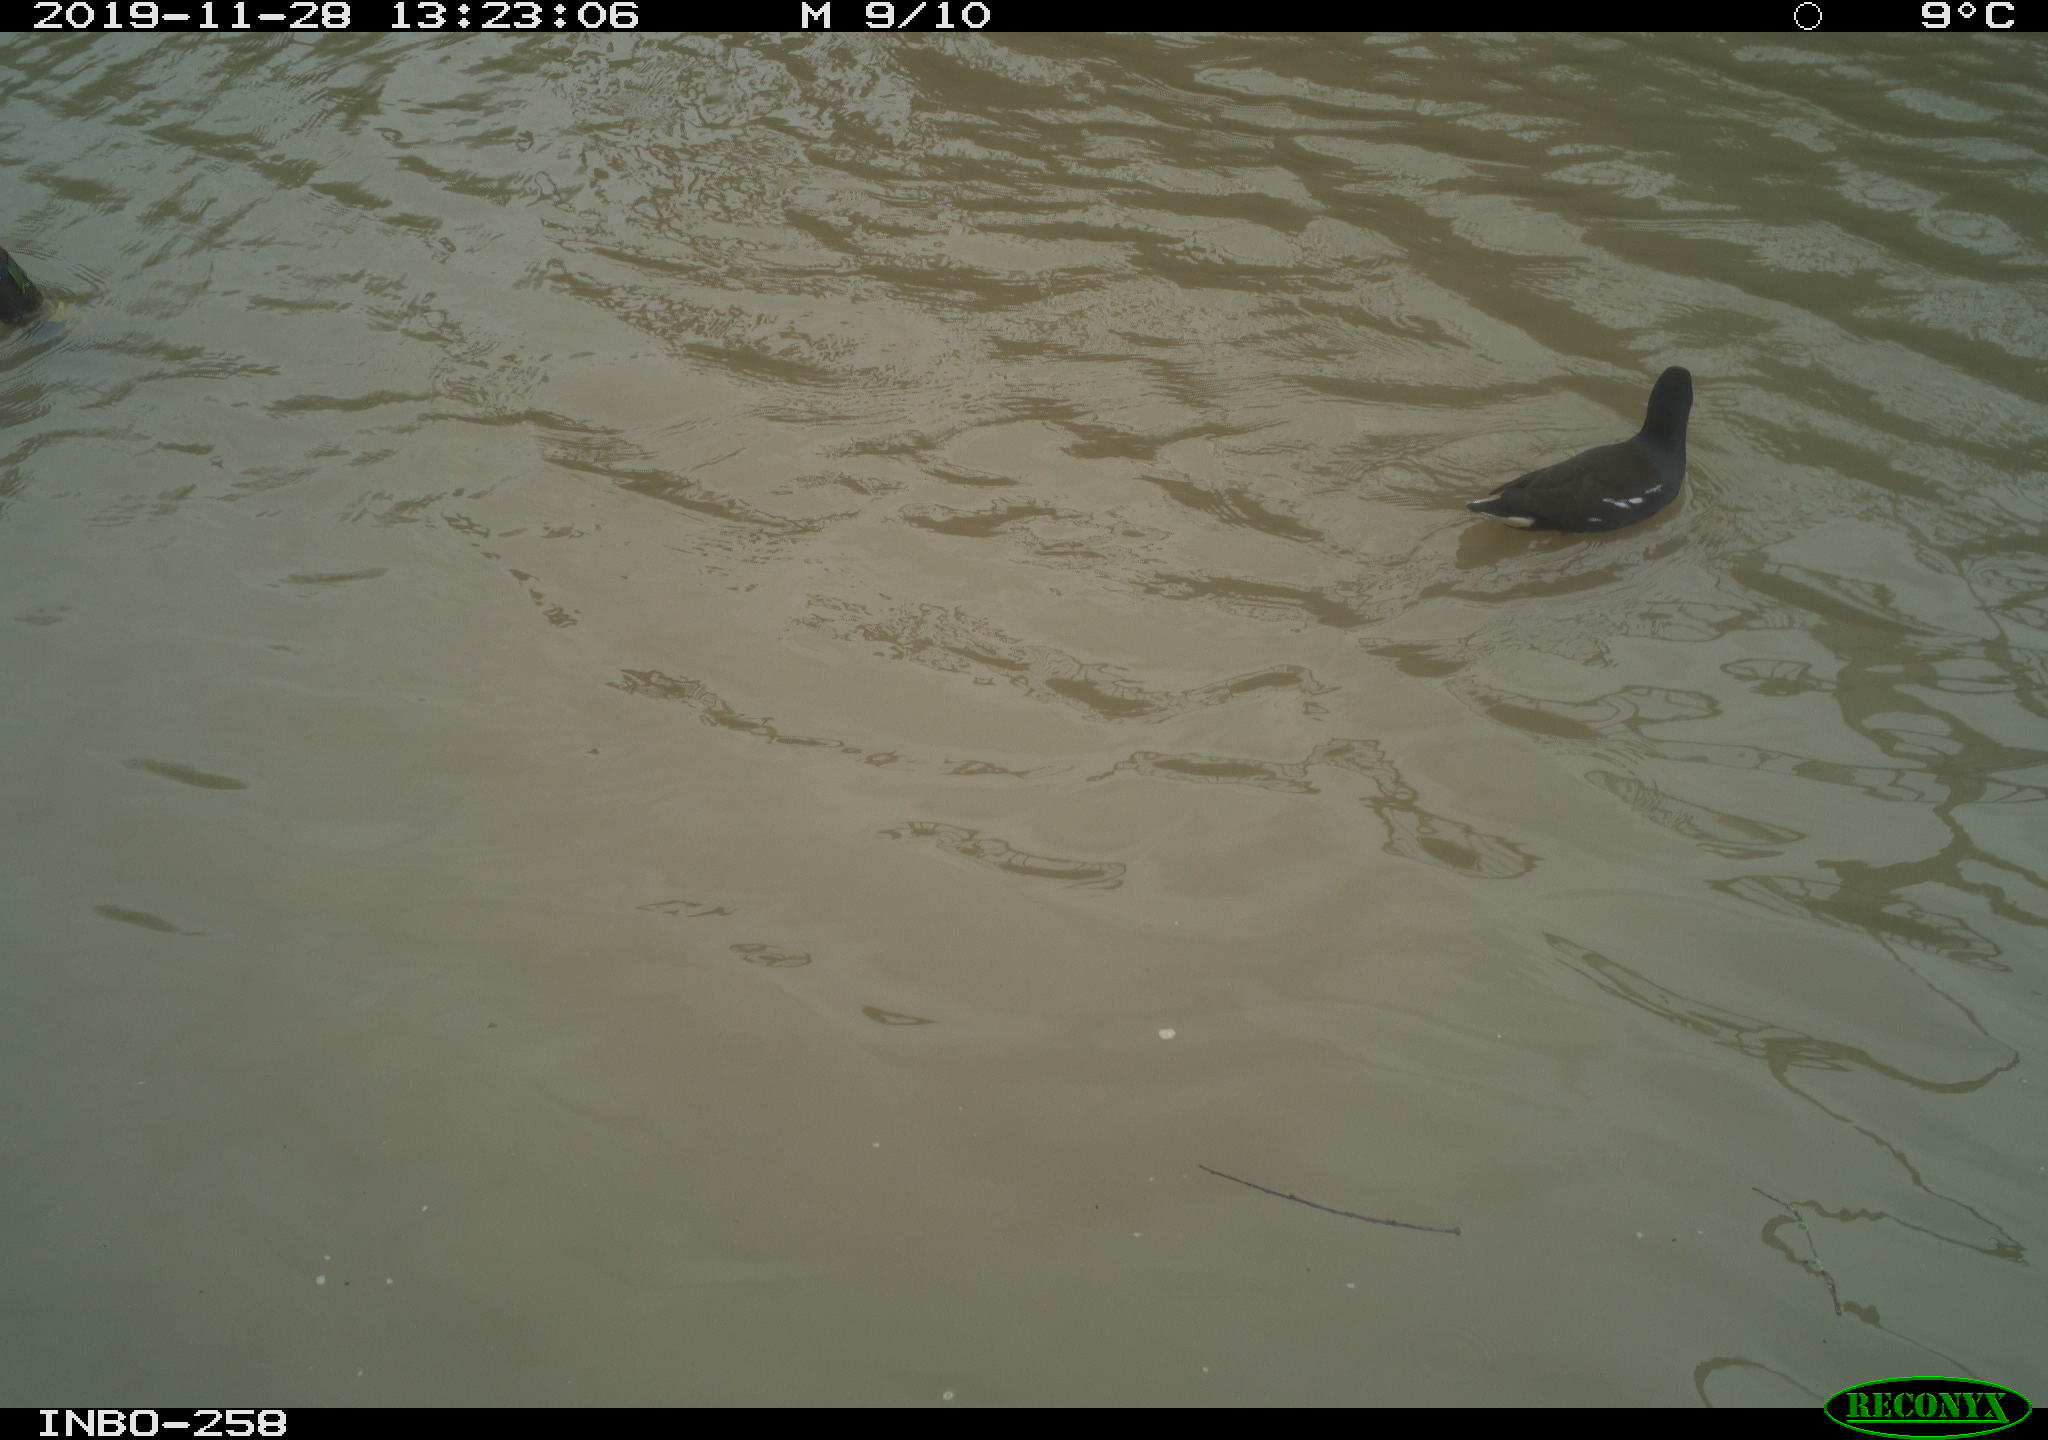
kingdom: Animalia
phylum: Chordata
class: Aves
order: Gruiformes
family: Rallidae
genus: Gallinula
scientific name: Gallinula chloropus
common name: Common moorhen
